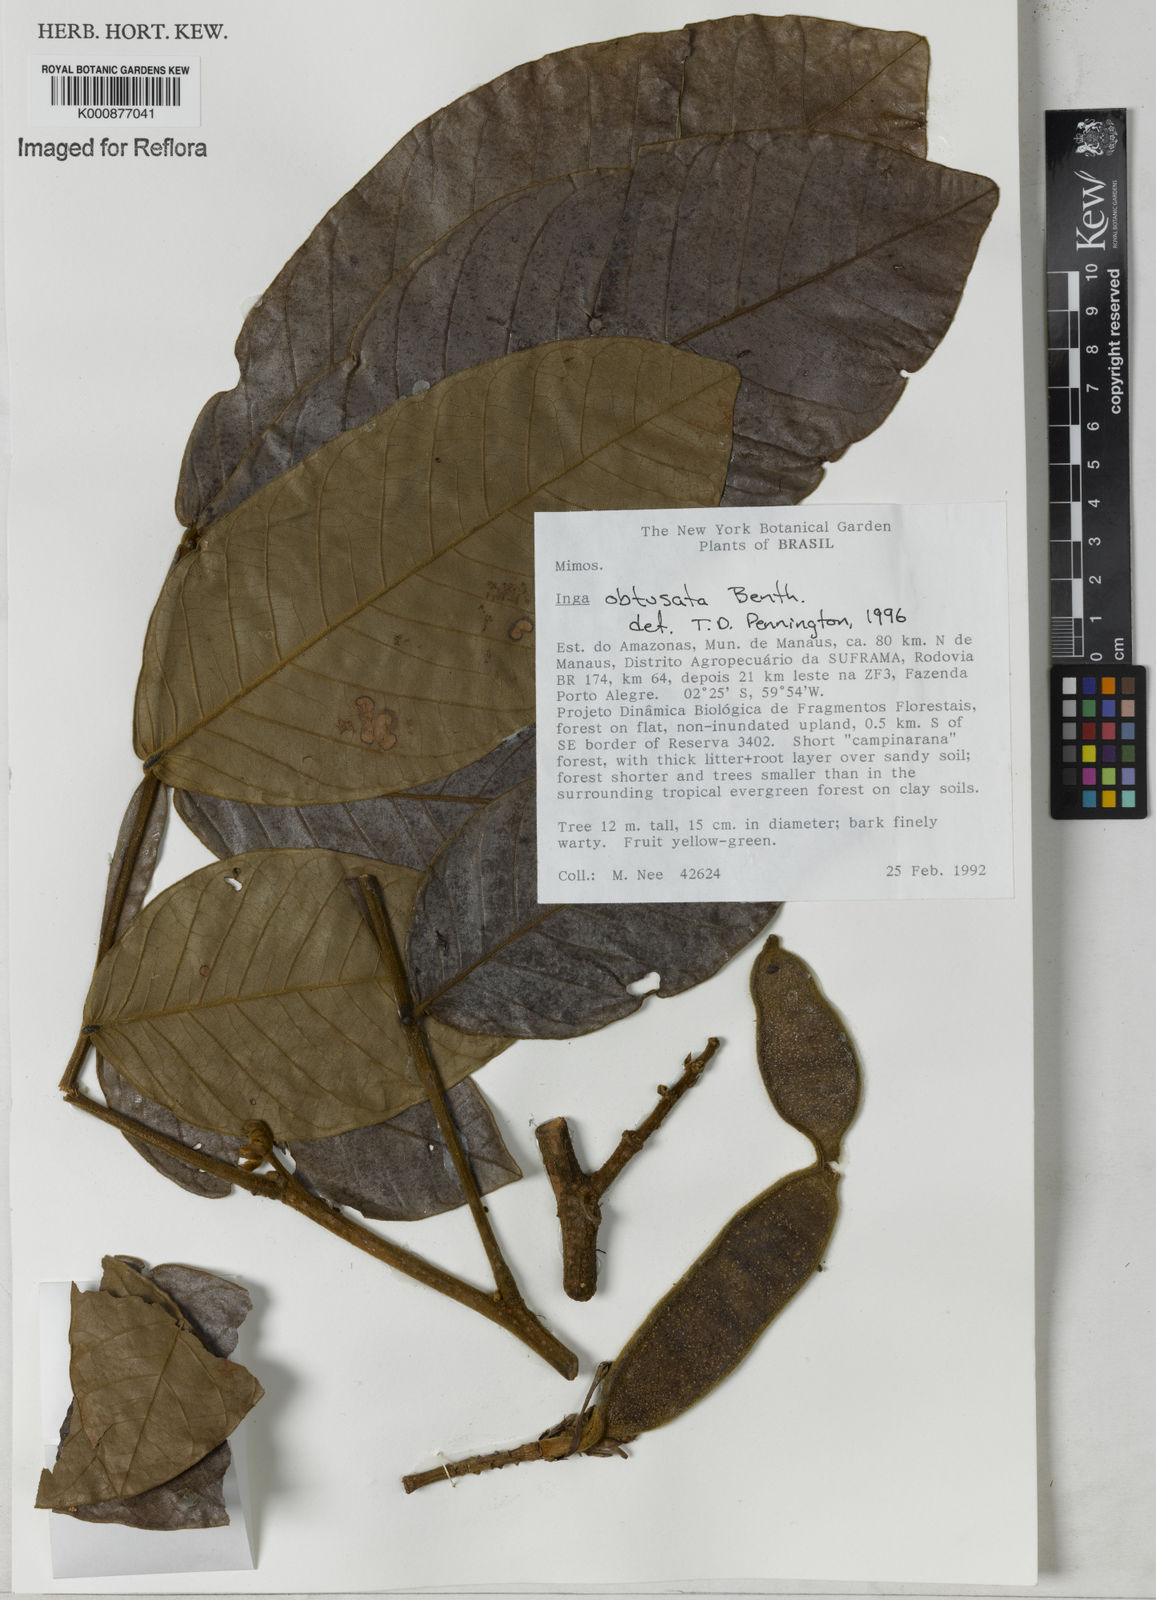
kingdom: Plantae
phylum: Tracheophyta
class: Magnoliopsida
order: Fabales
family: Fabaceae
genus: Inga
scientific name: Inga obtusata
